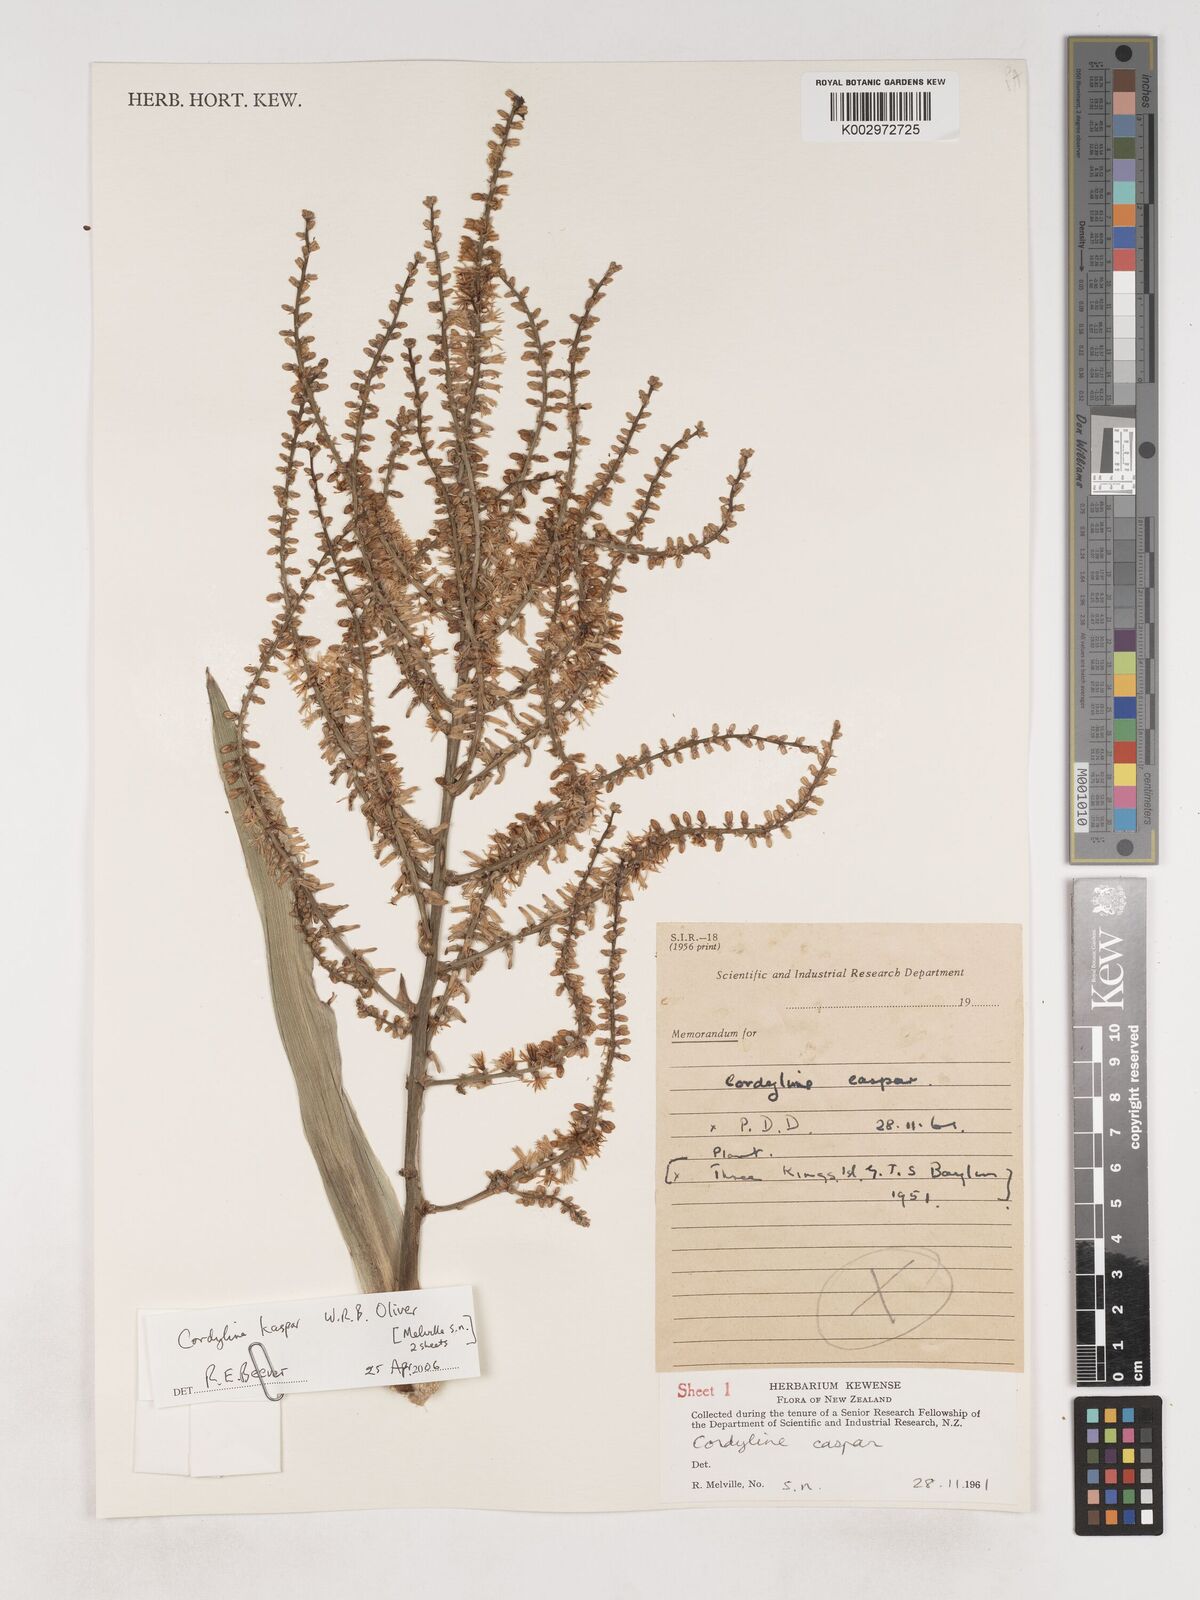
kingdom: Plantae
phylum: Tracheophyta
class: Liliopsida
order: Asparagales
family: Asparagaceae
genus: Cordyline
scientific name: Cordyline obtecta
